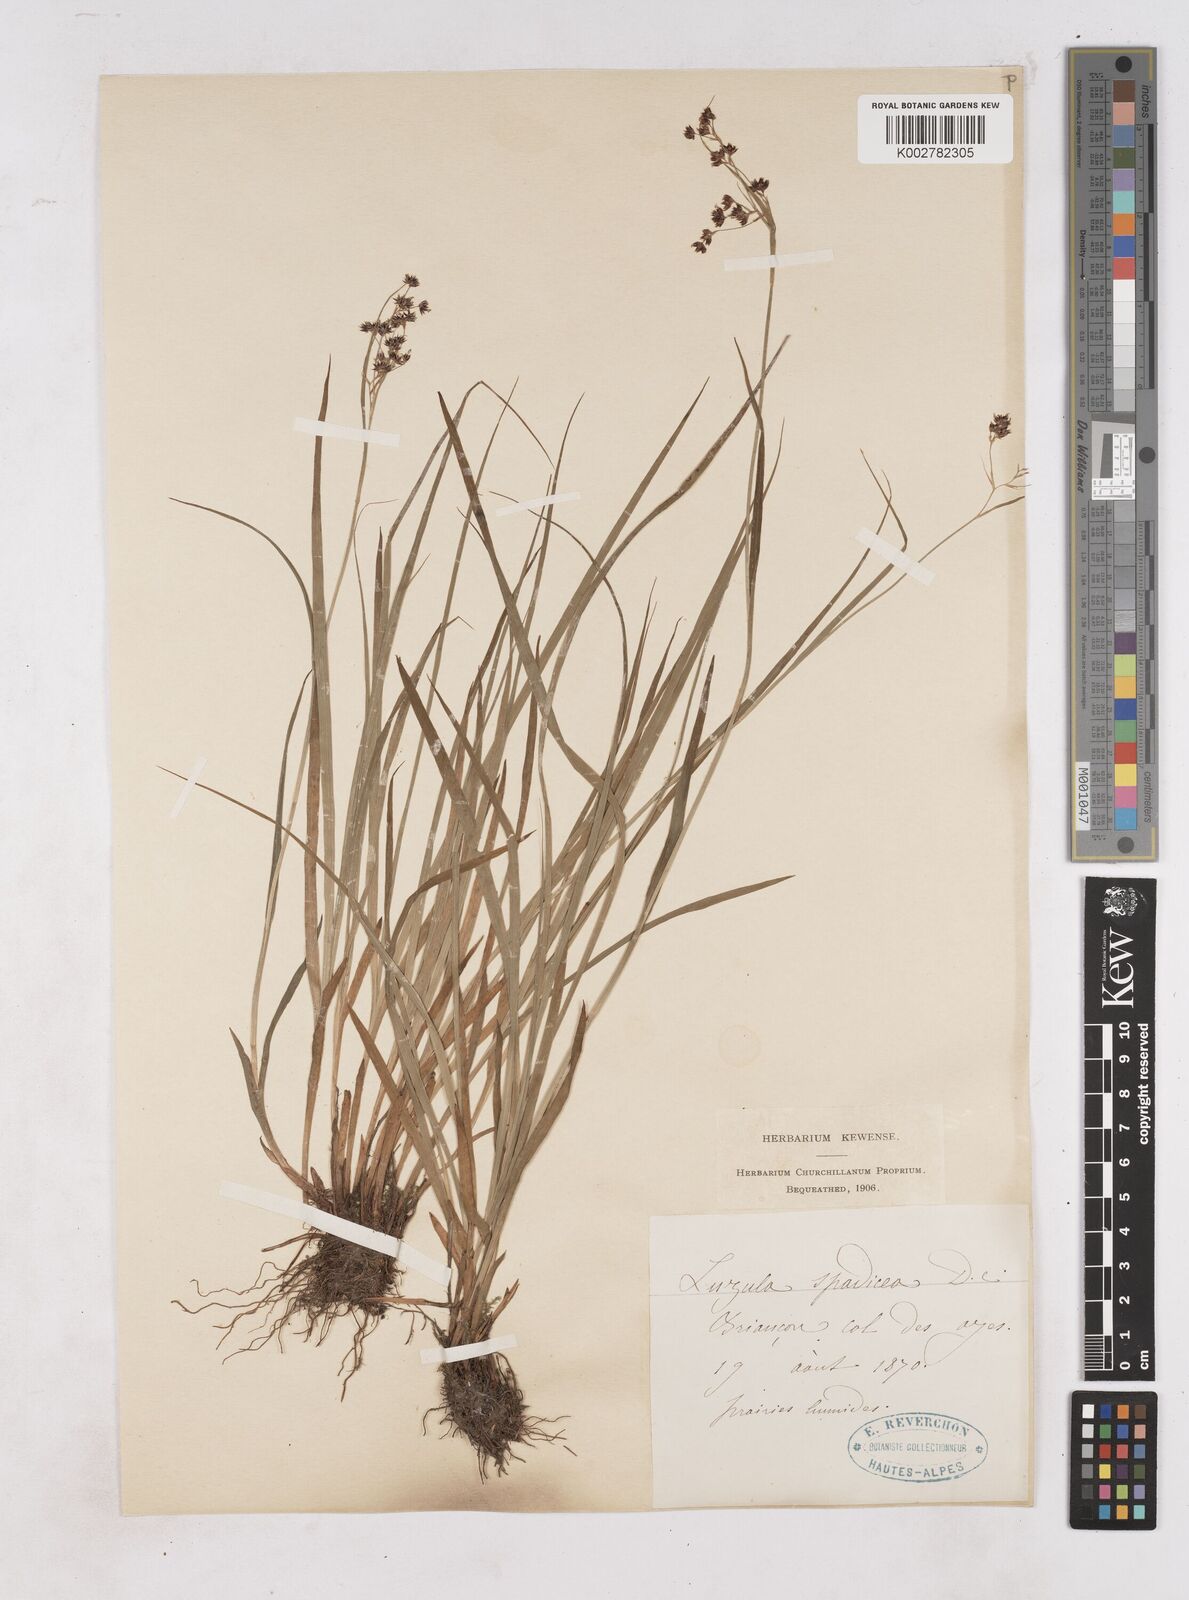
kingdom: Plantae
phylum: Tracheophyta
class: Liliopsida
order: Poales
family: Juncaceae
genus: Luzula
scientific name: Luzula alpinopilosa
